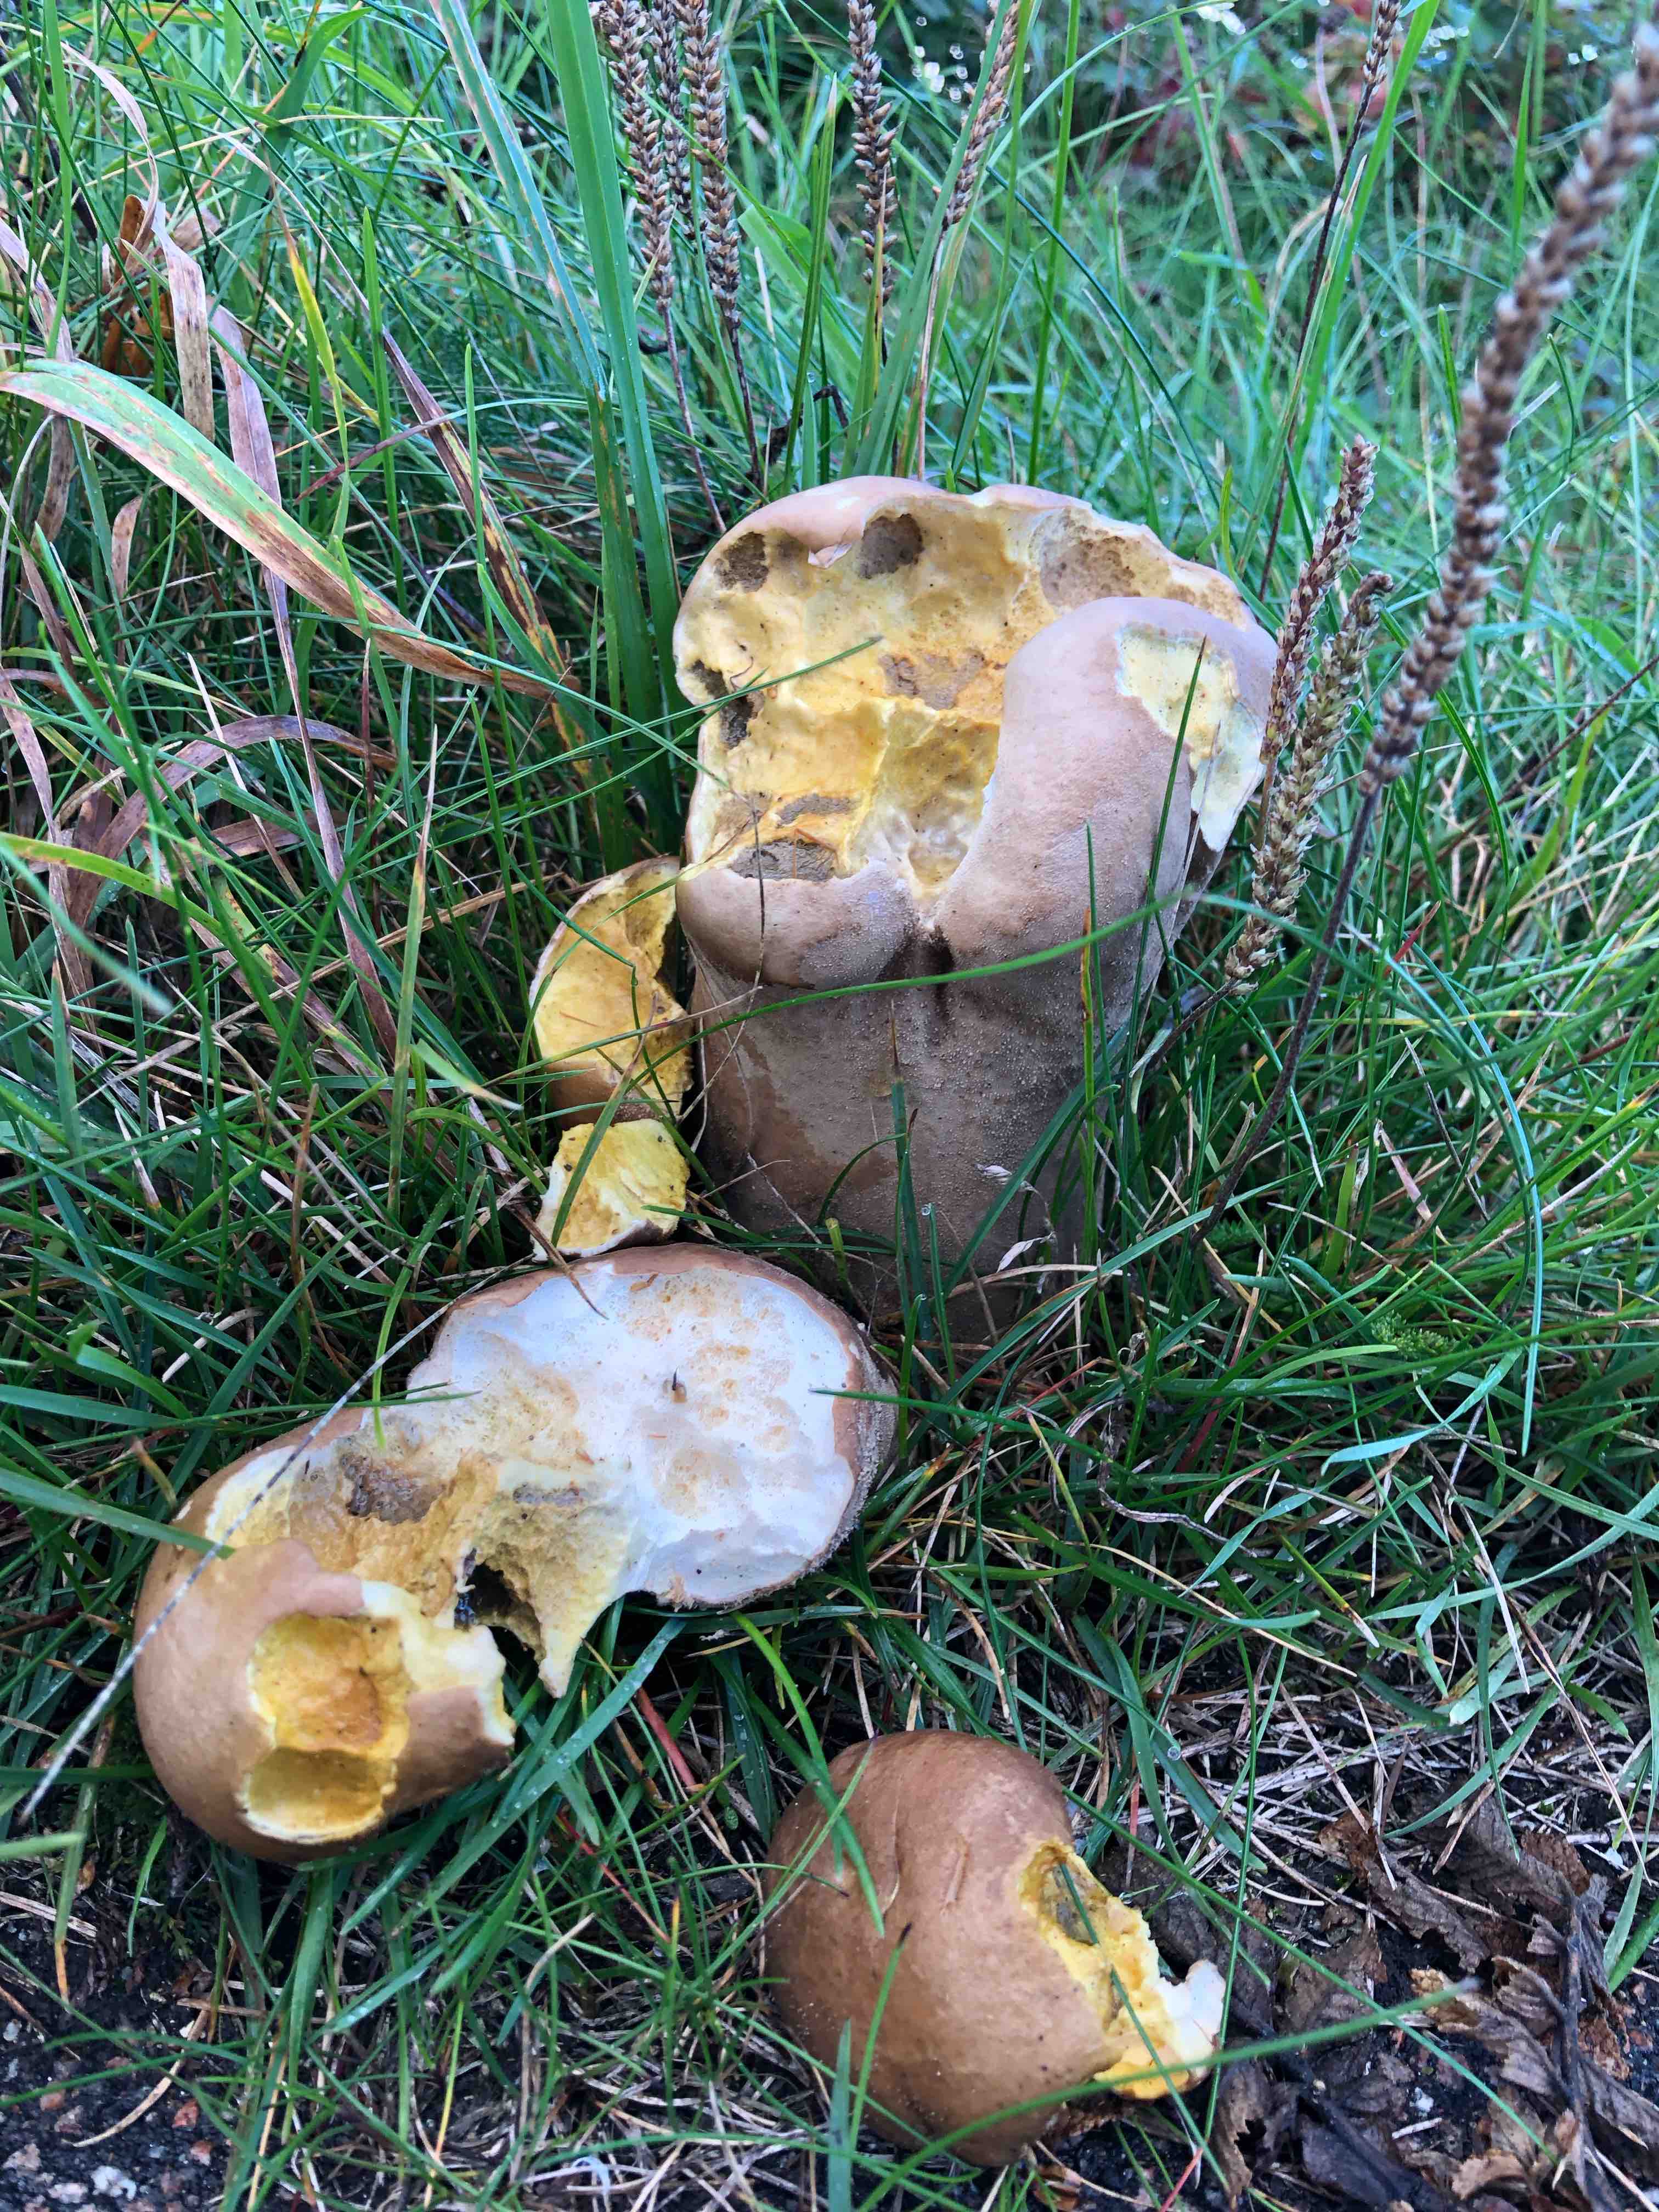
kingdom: Fungi
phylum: Basidiomycota
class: Agaricomycetes
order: Agaricales
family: Lycoperdaceae
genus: Lycoperdon
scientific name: Lycoperdon excipuliforme
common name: højstokket støvbold
